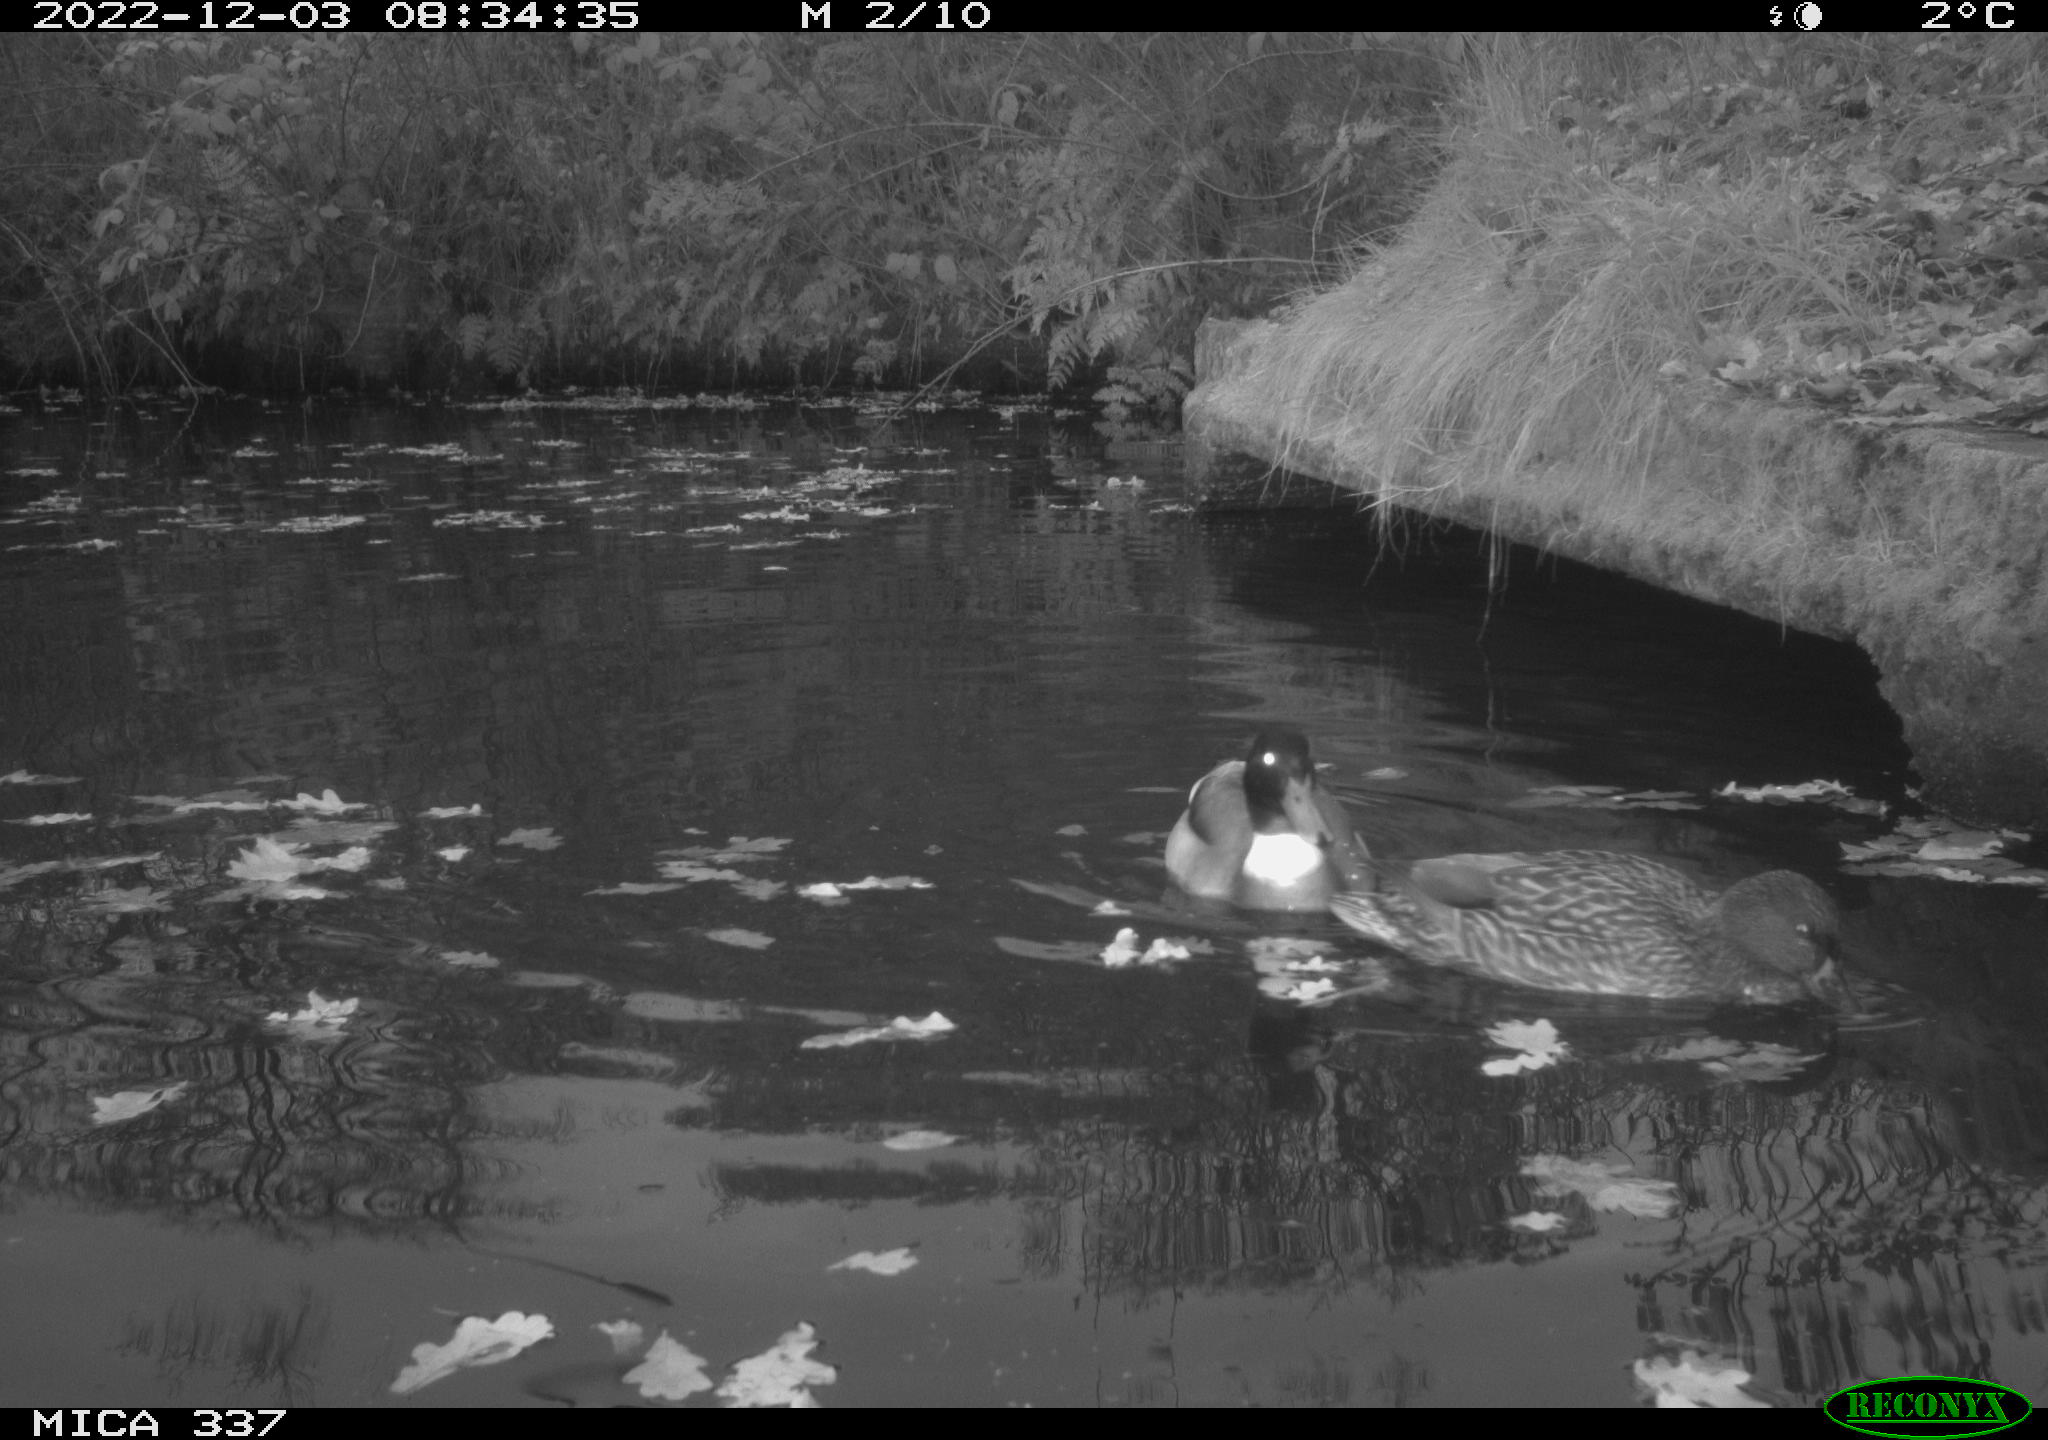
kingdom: Animalia
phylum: Chordata
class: Aves
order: Anseriformes
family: Anatidae
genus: Anas
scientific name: Anas
